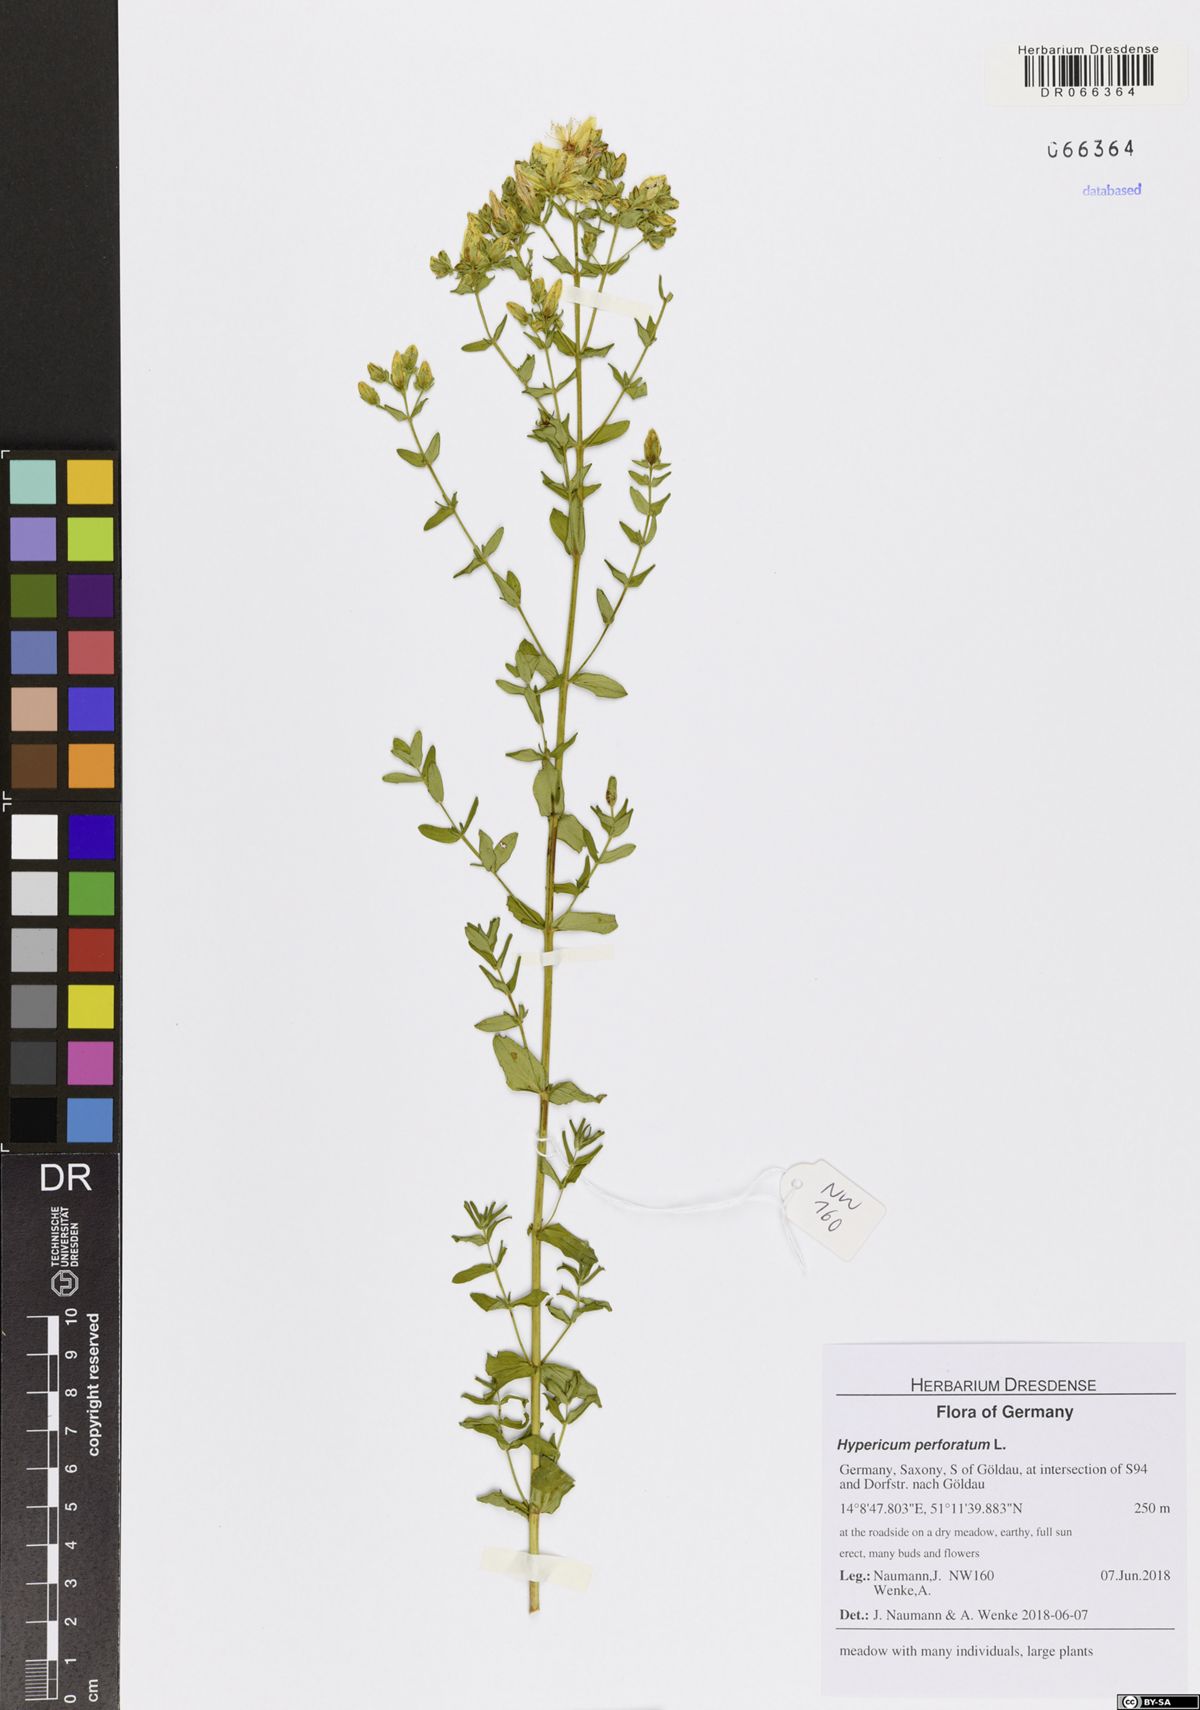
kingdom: Plantae
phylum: Tracheophyta
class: Magnoliopsida
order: Malpighiales
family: Hypericaceae
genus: Hypericum
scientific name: Hypericum perforatum
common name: Common st. johnswort
